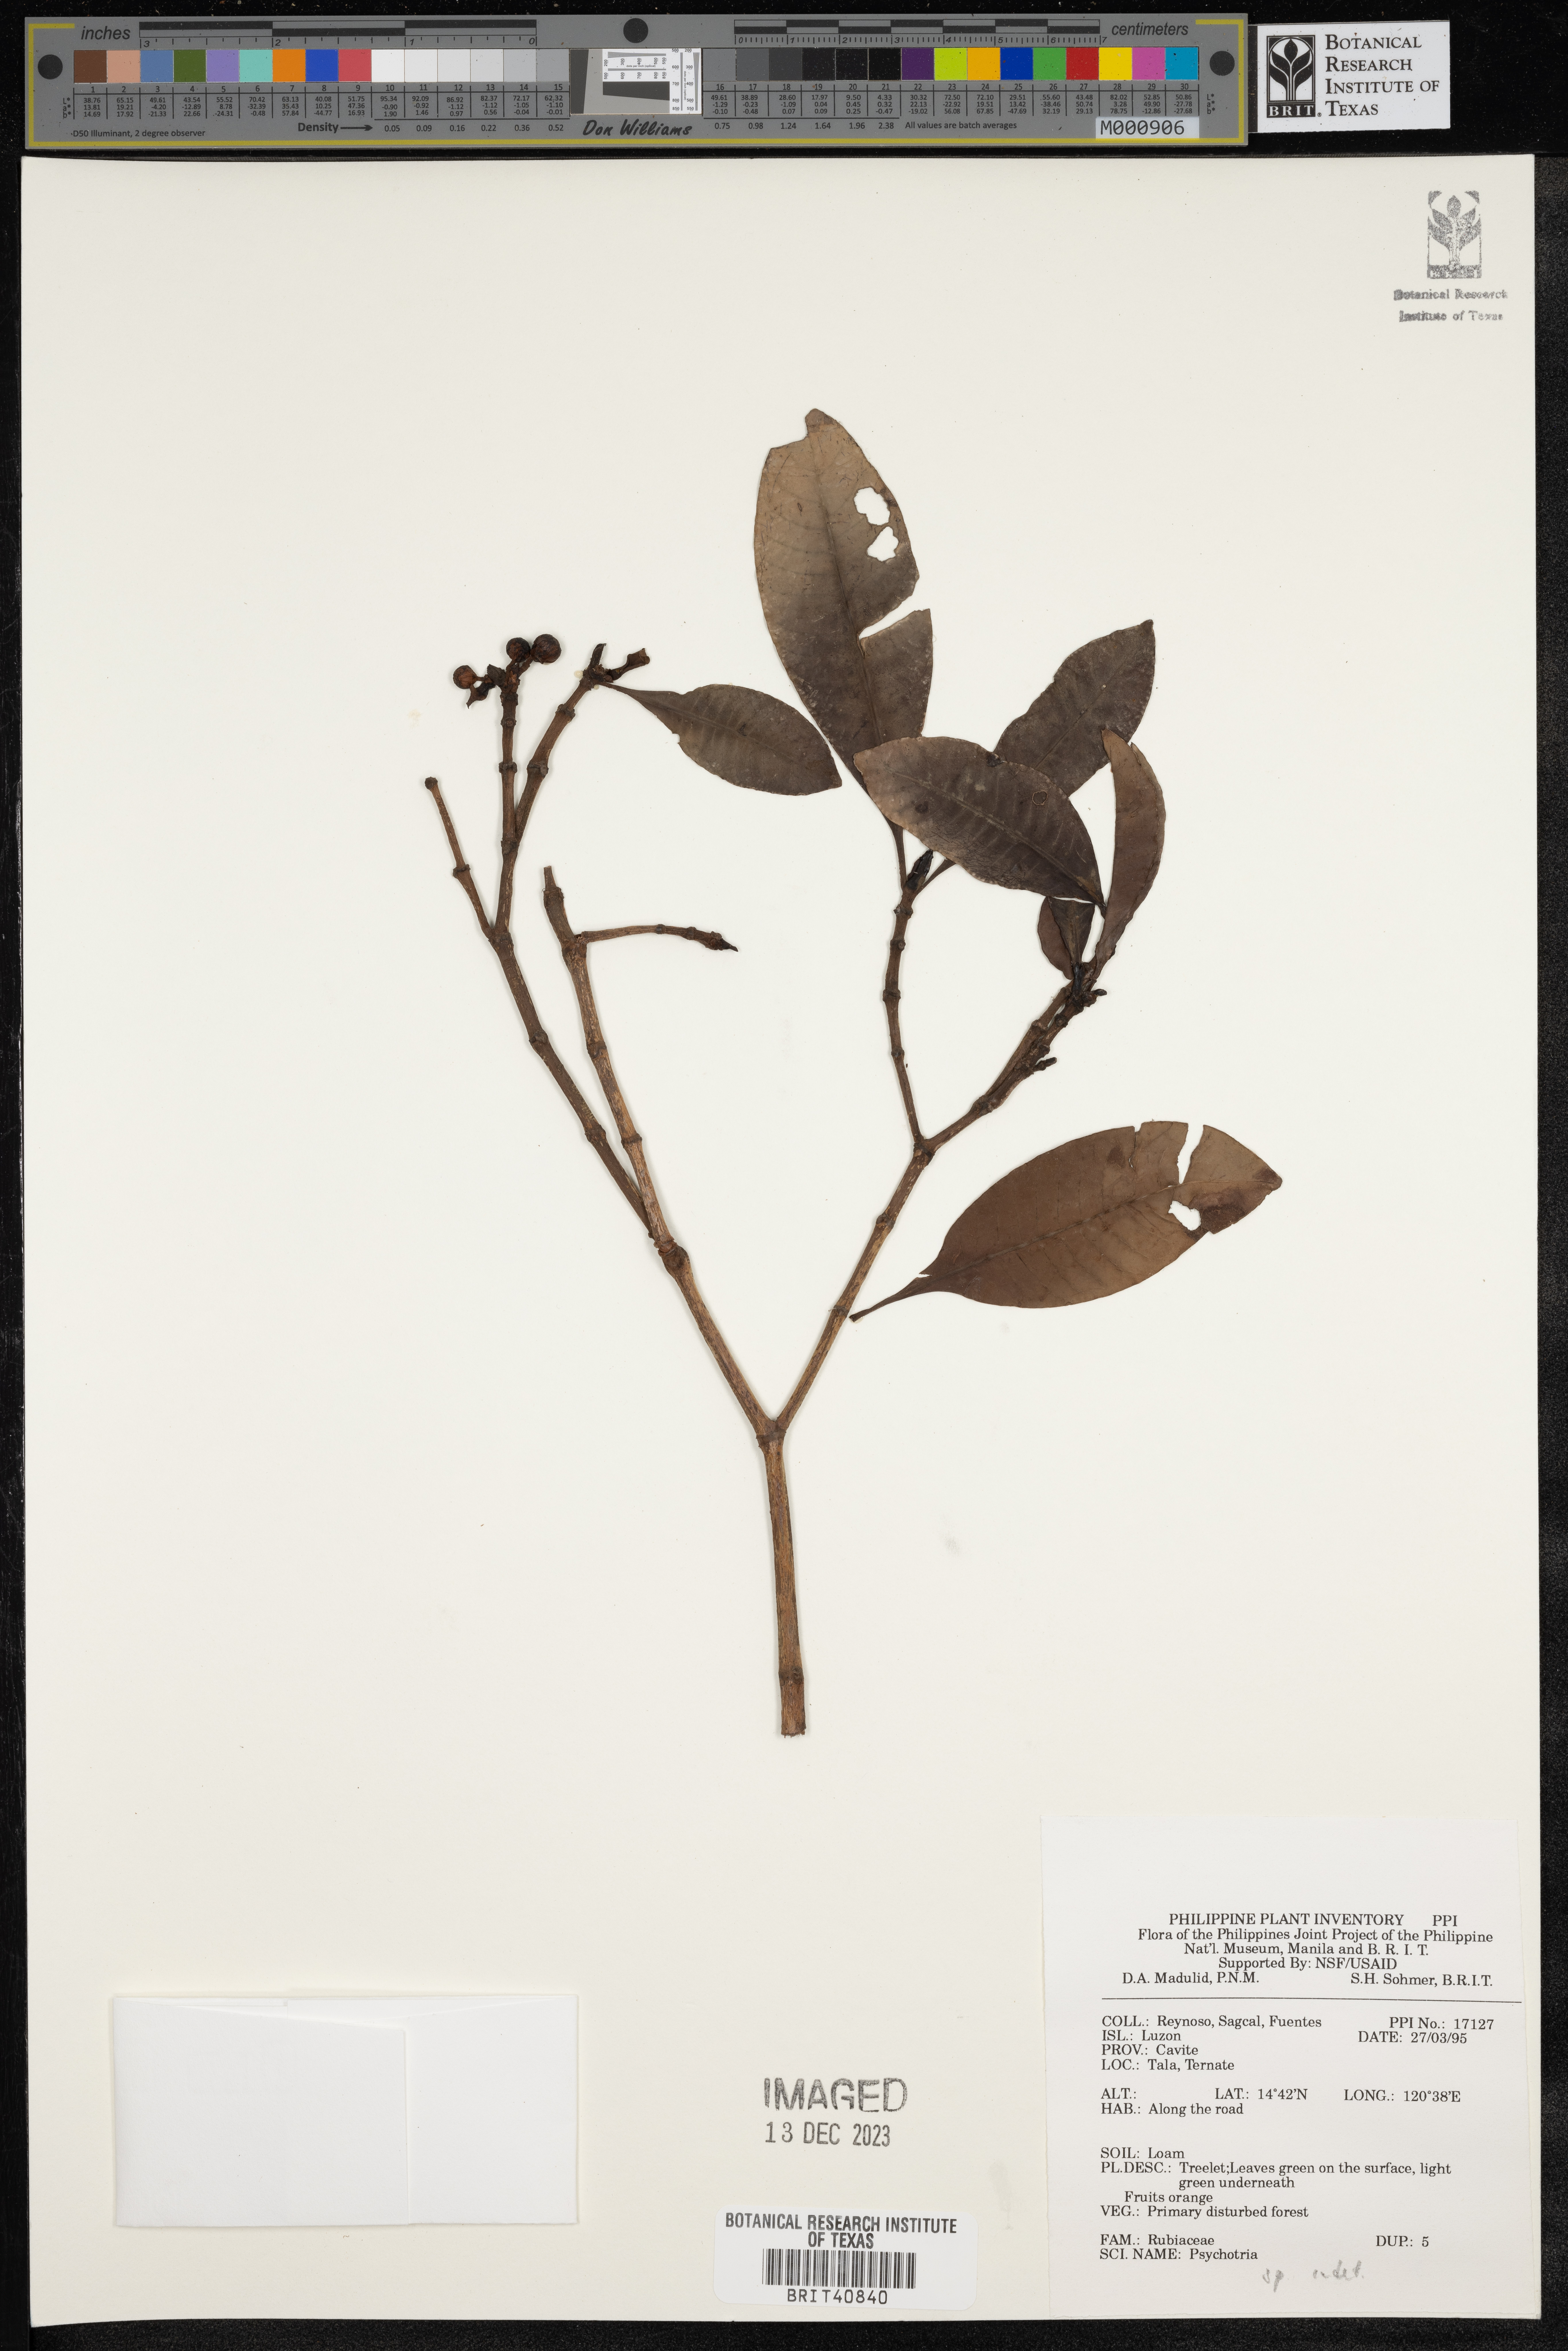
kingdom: Plantae
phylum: Tracheophyta
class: Magnoliopsida
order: Gentianales
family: Rubiaceae
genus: Psychotria
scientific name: Psychotria
